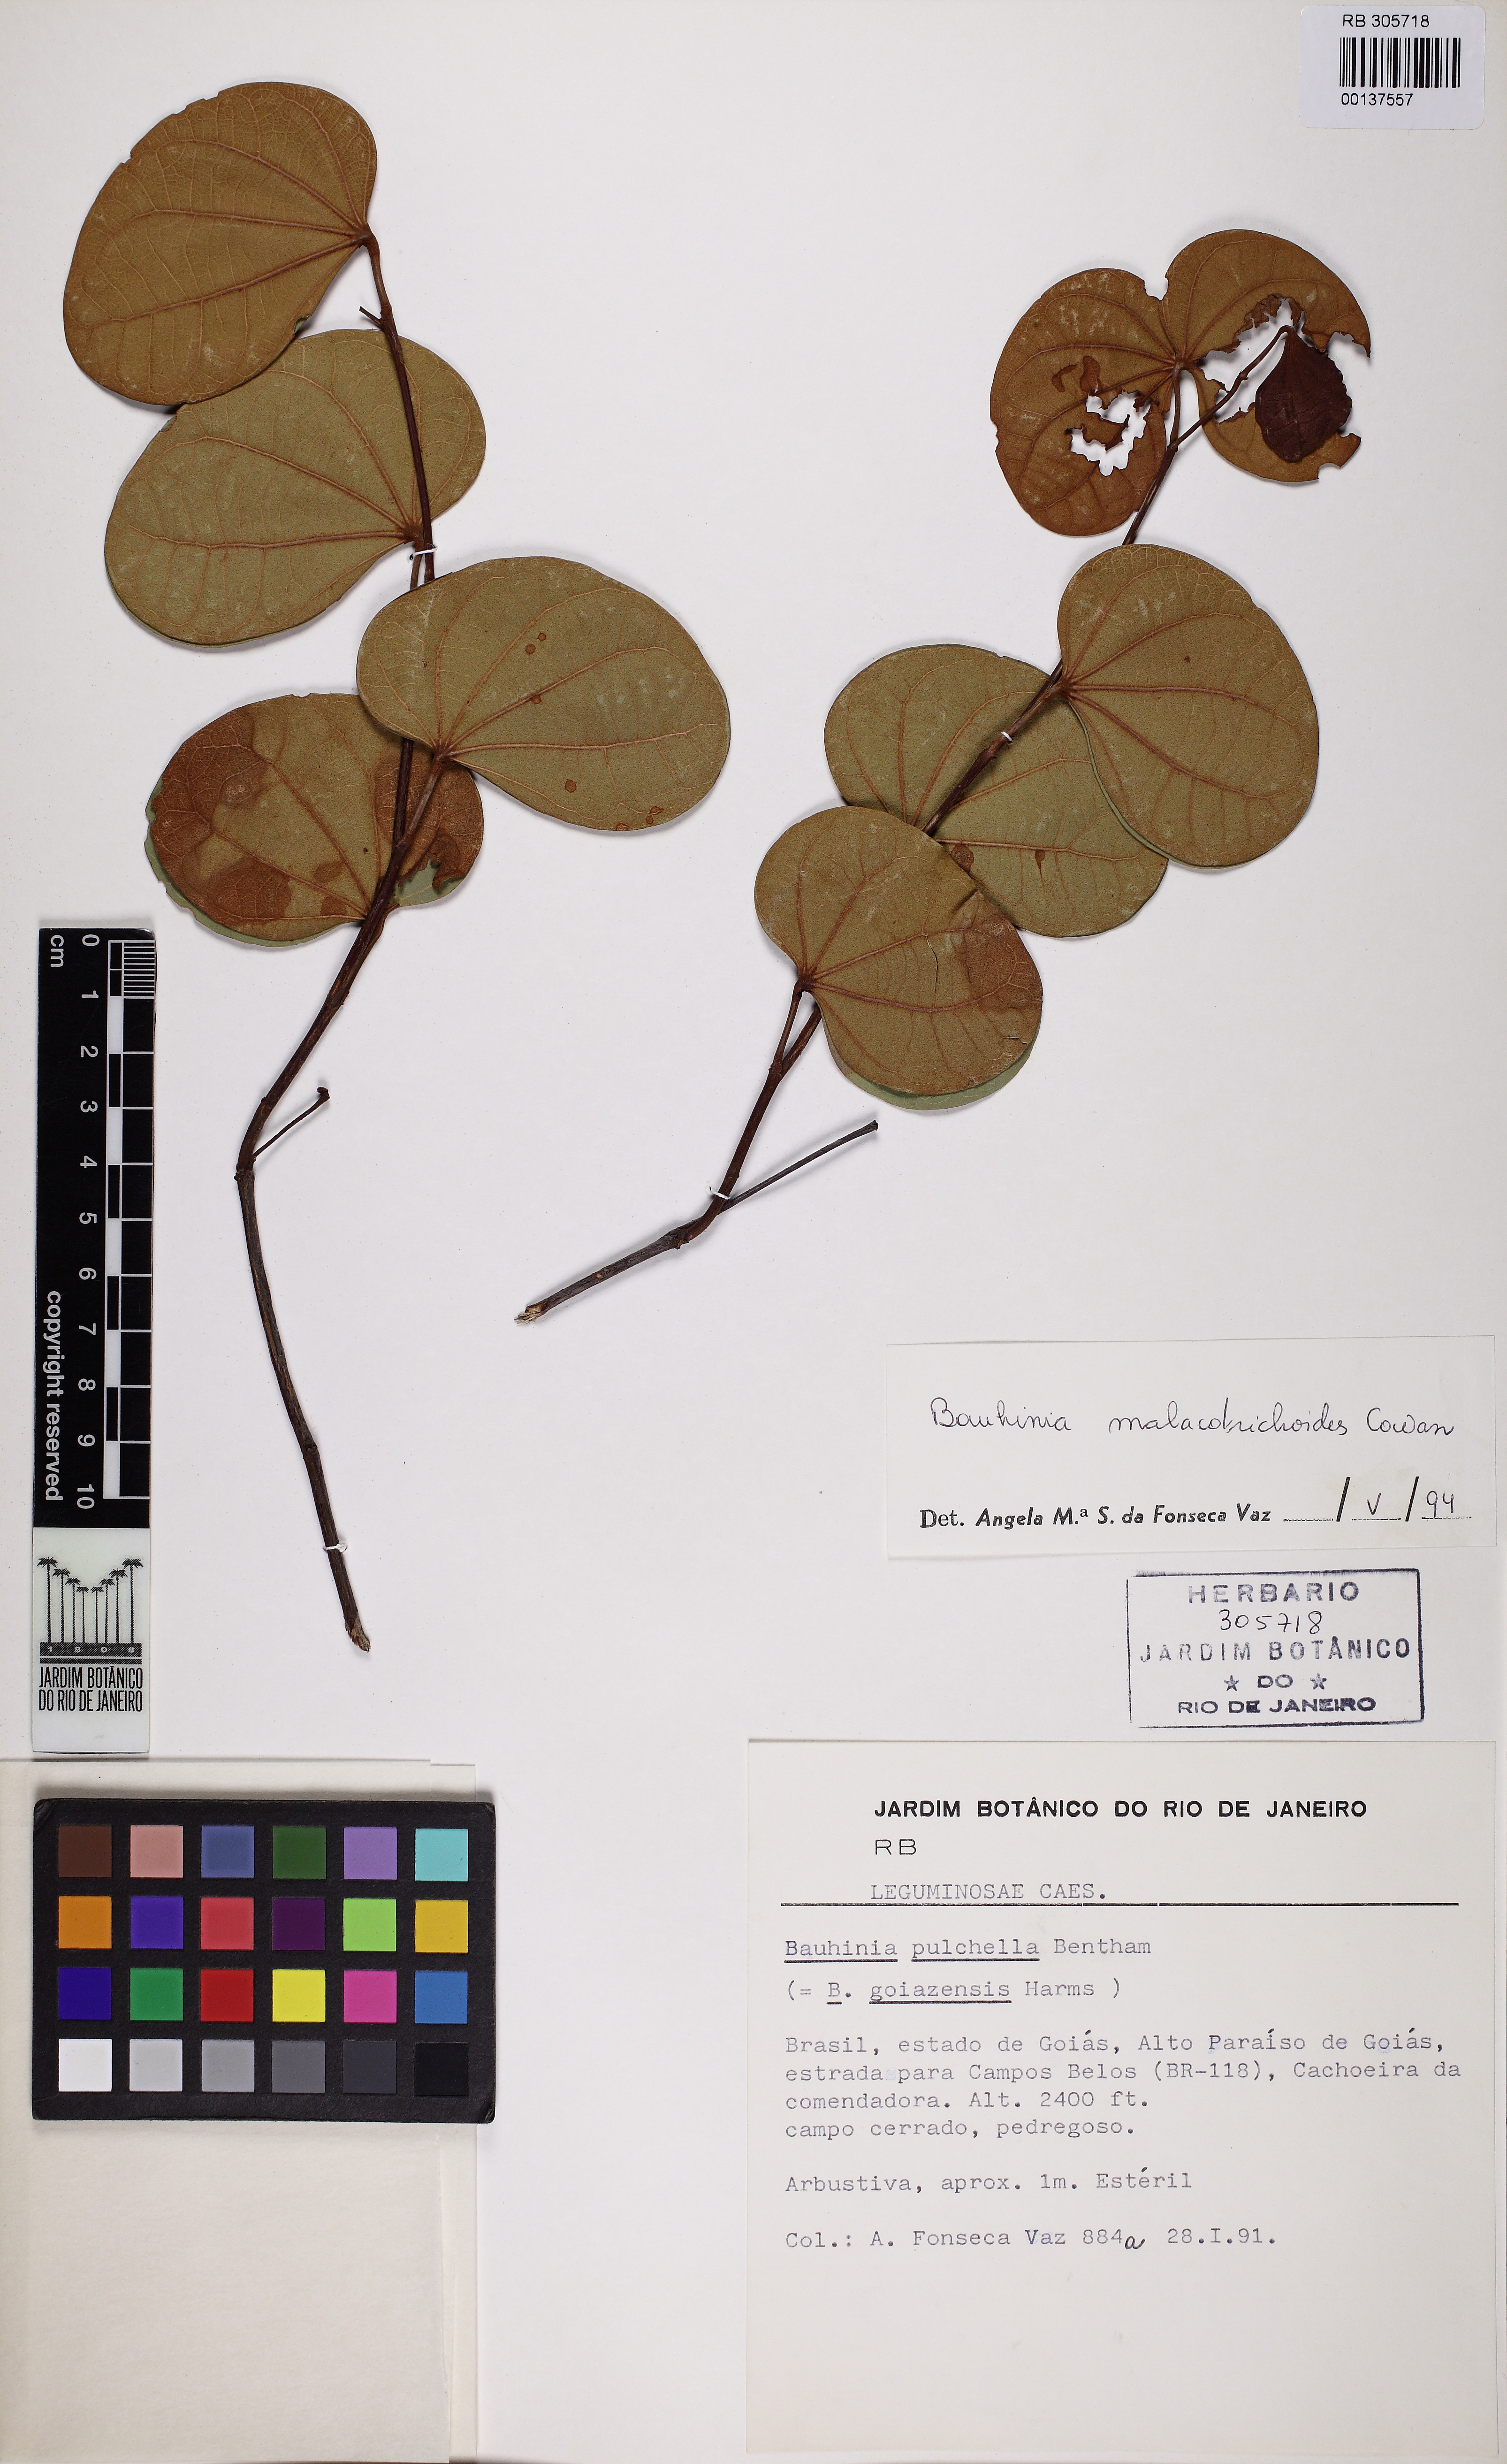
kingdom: Plantae
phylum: Tracheophyta
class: Magnoliopsida
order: Fabales
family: Fabaceae
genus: Bauhinia
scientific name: Bauhinia malacotrichoides
